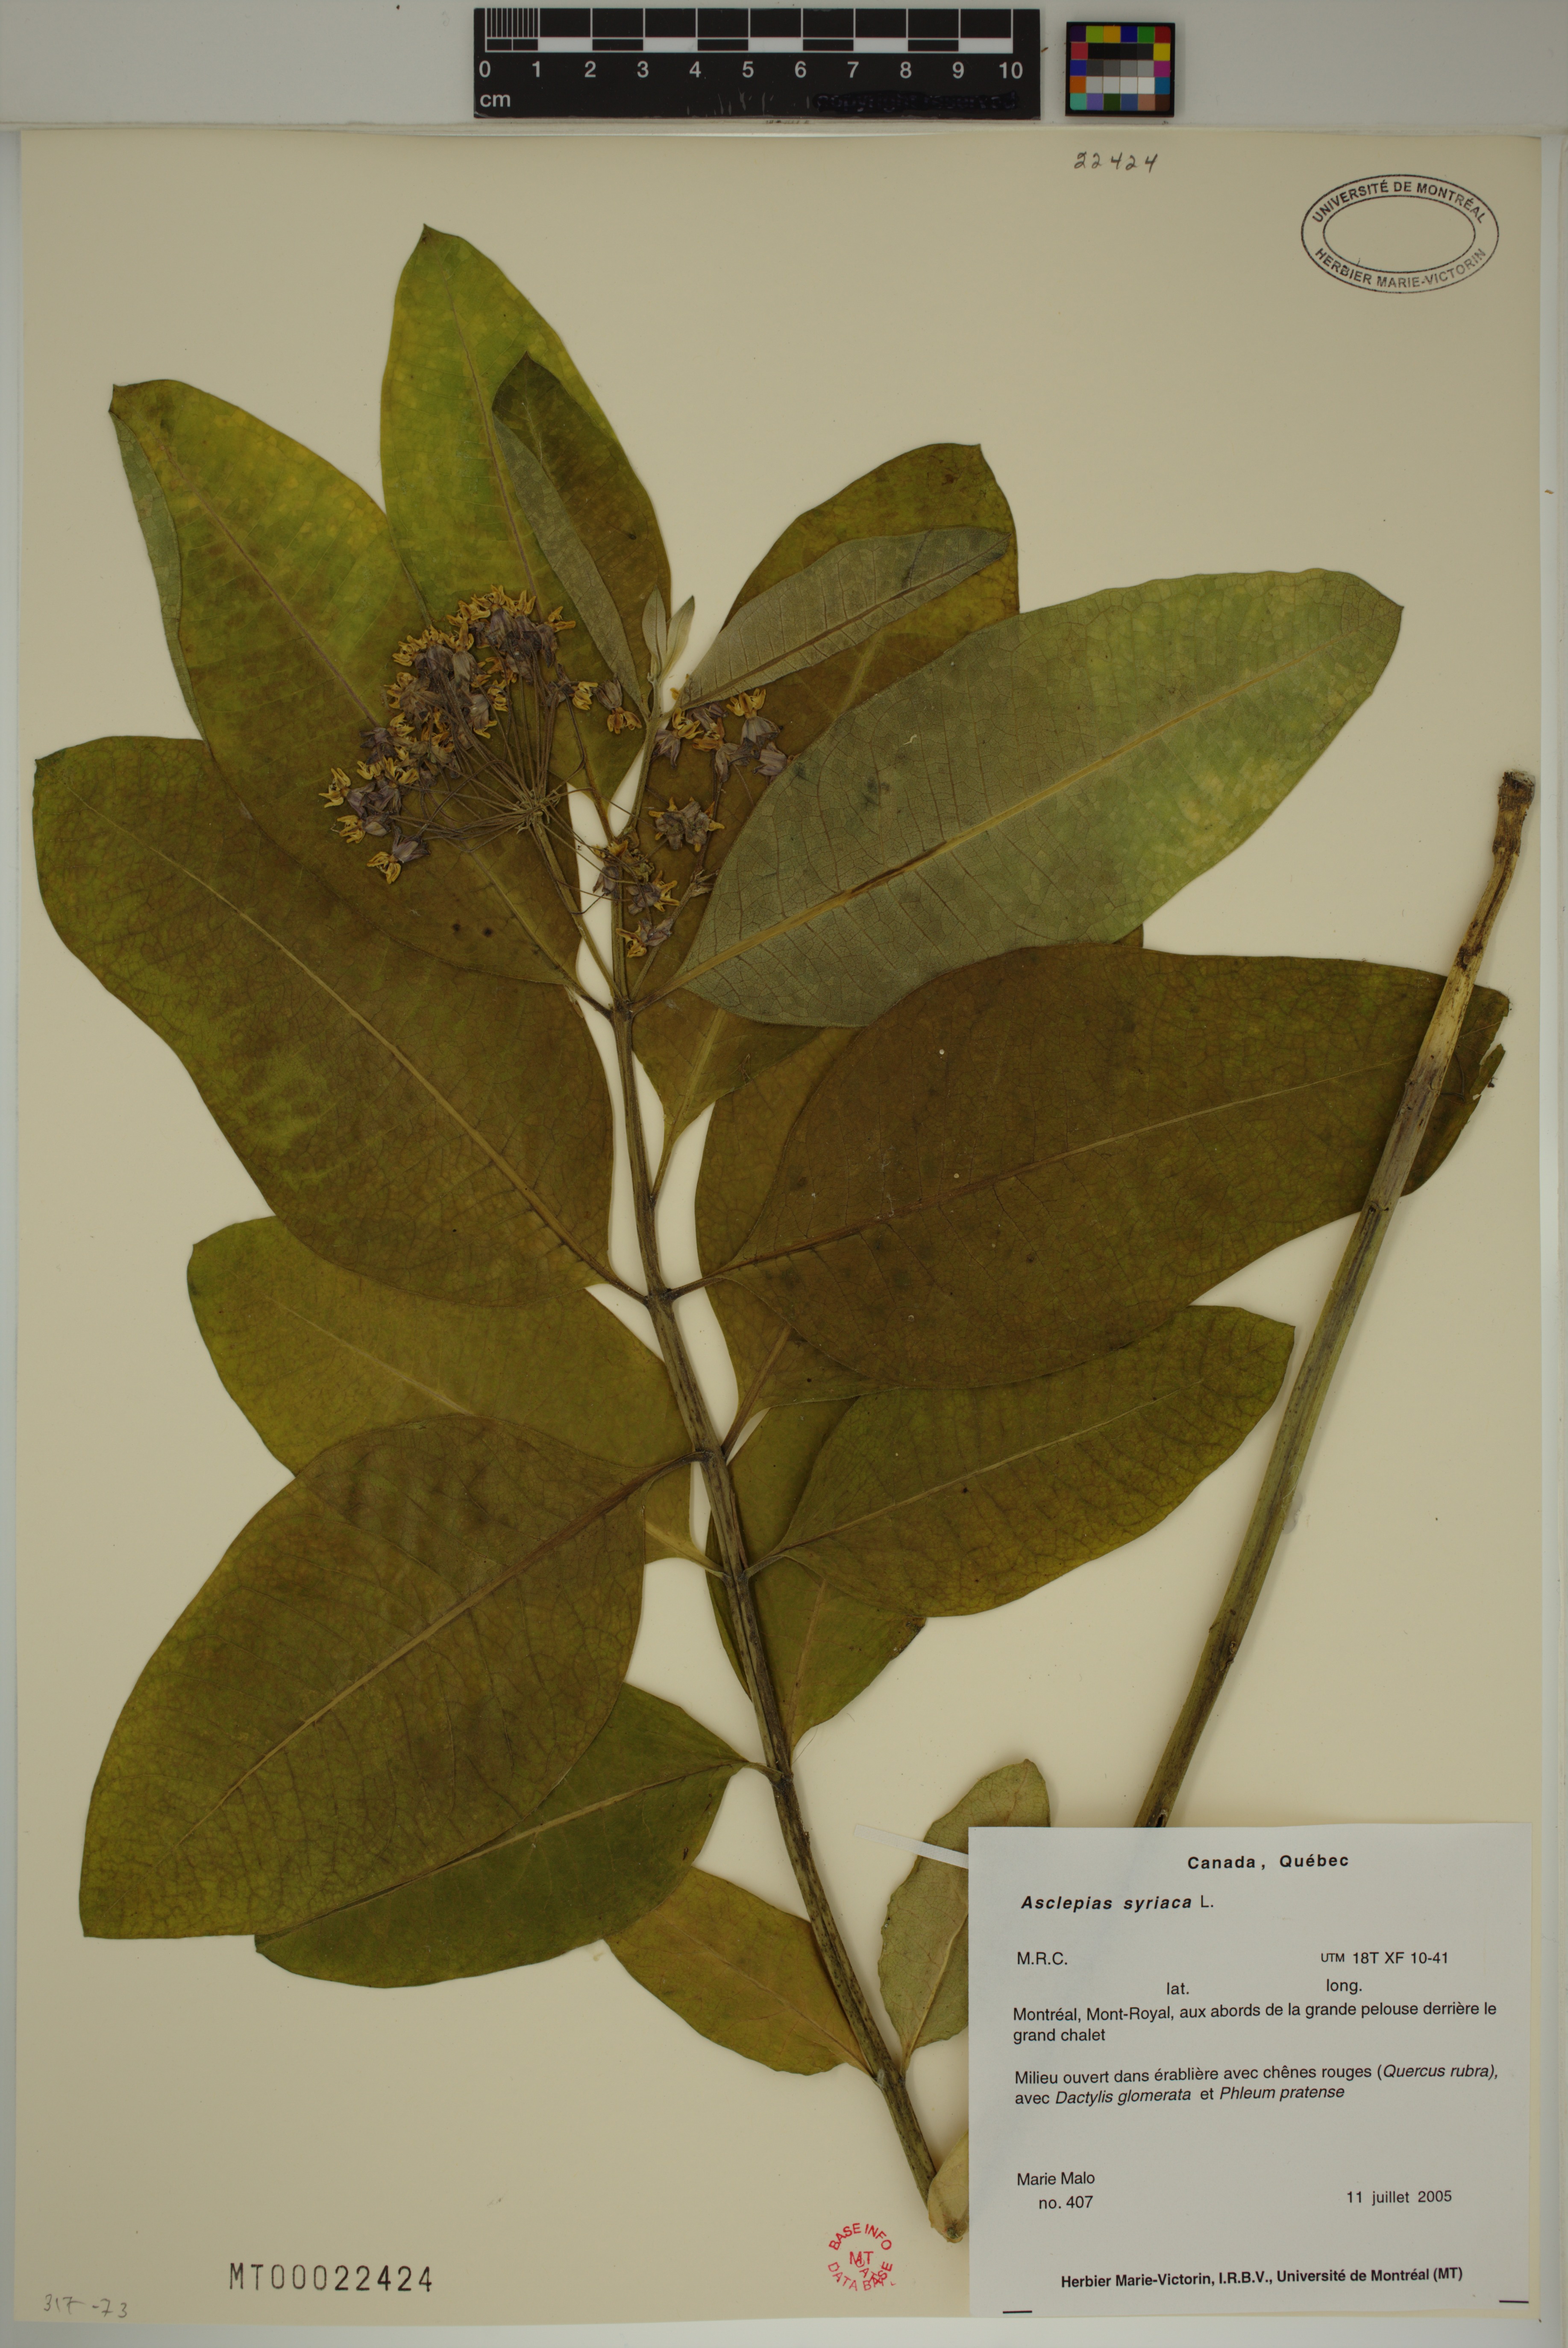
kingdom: Plantae
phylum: Tracheophyta
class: Magnoliopsida
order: Gentianales
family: Apocynaceae
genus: Asclepias
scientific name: Asclepias syriaca
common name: Common milkweed
